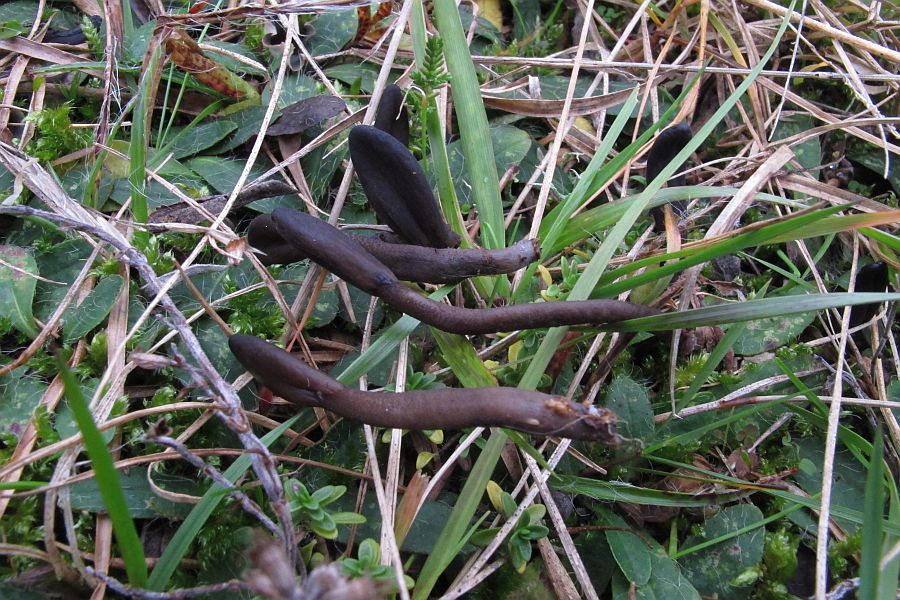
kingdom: Fungi
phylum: Ascomycota
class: Geoglossomycetes
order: Geoglossales
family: Geoglossaceae
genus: Geoglossum
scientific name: Geoglossum fallax
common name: småskællet jordtunge
